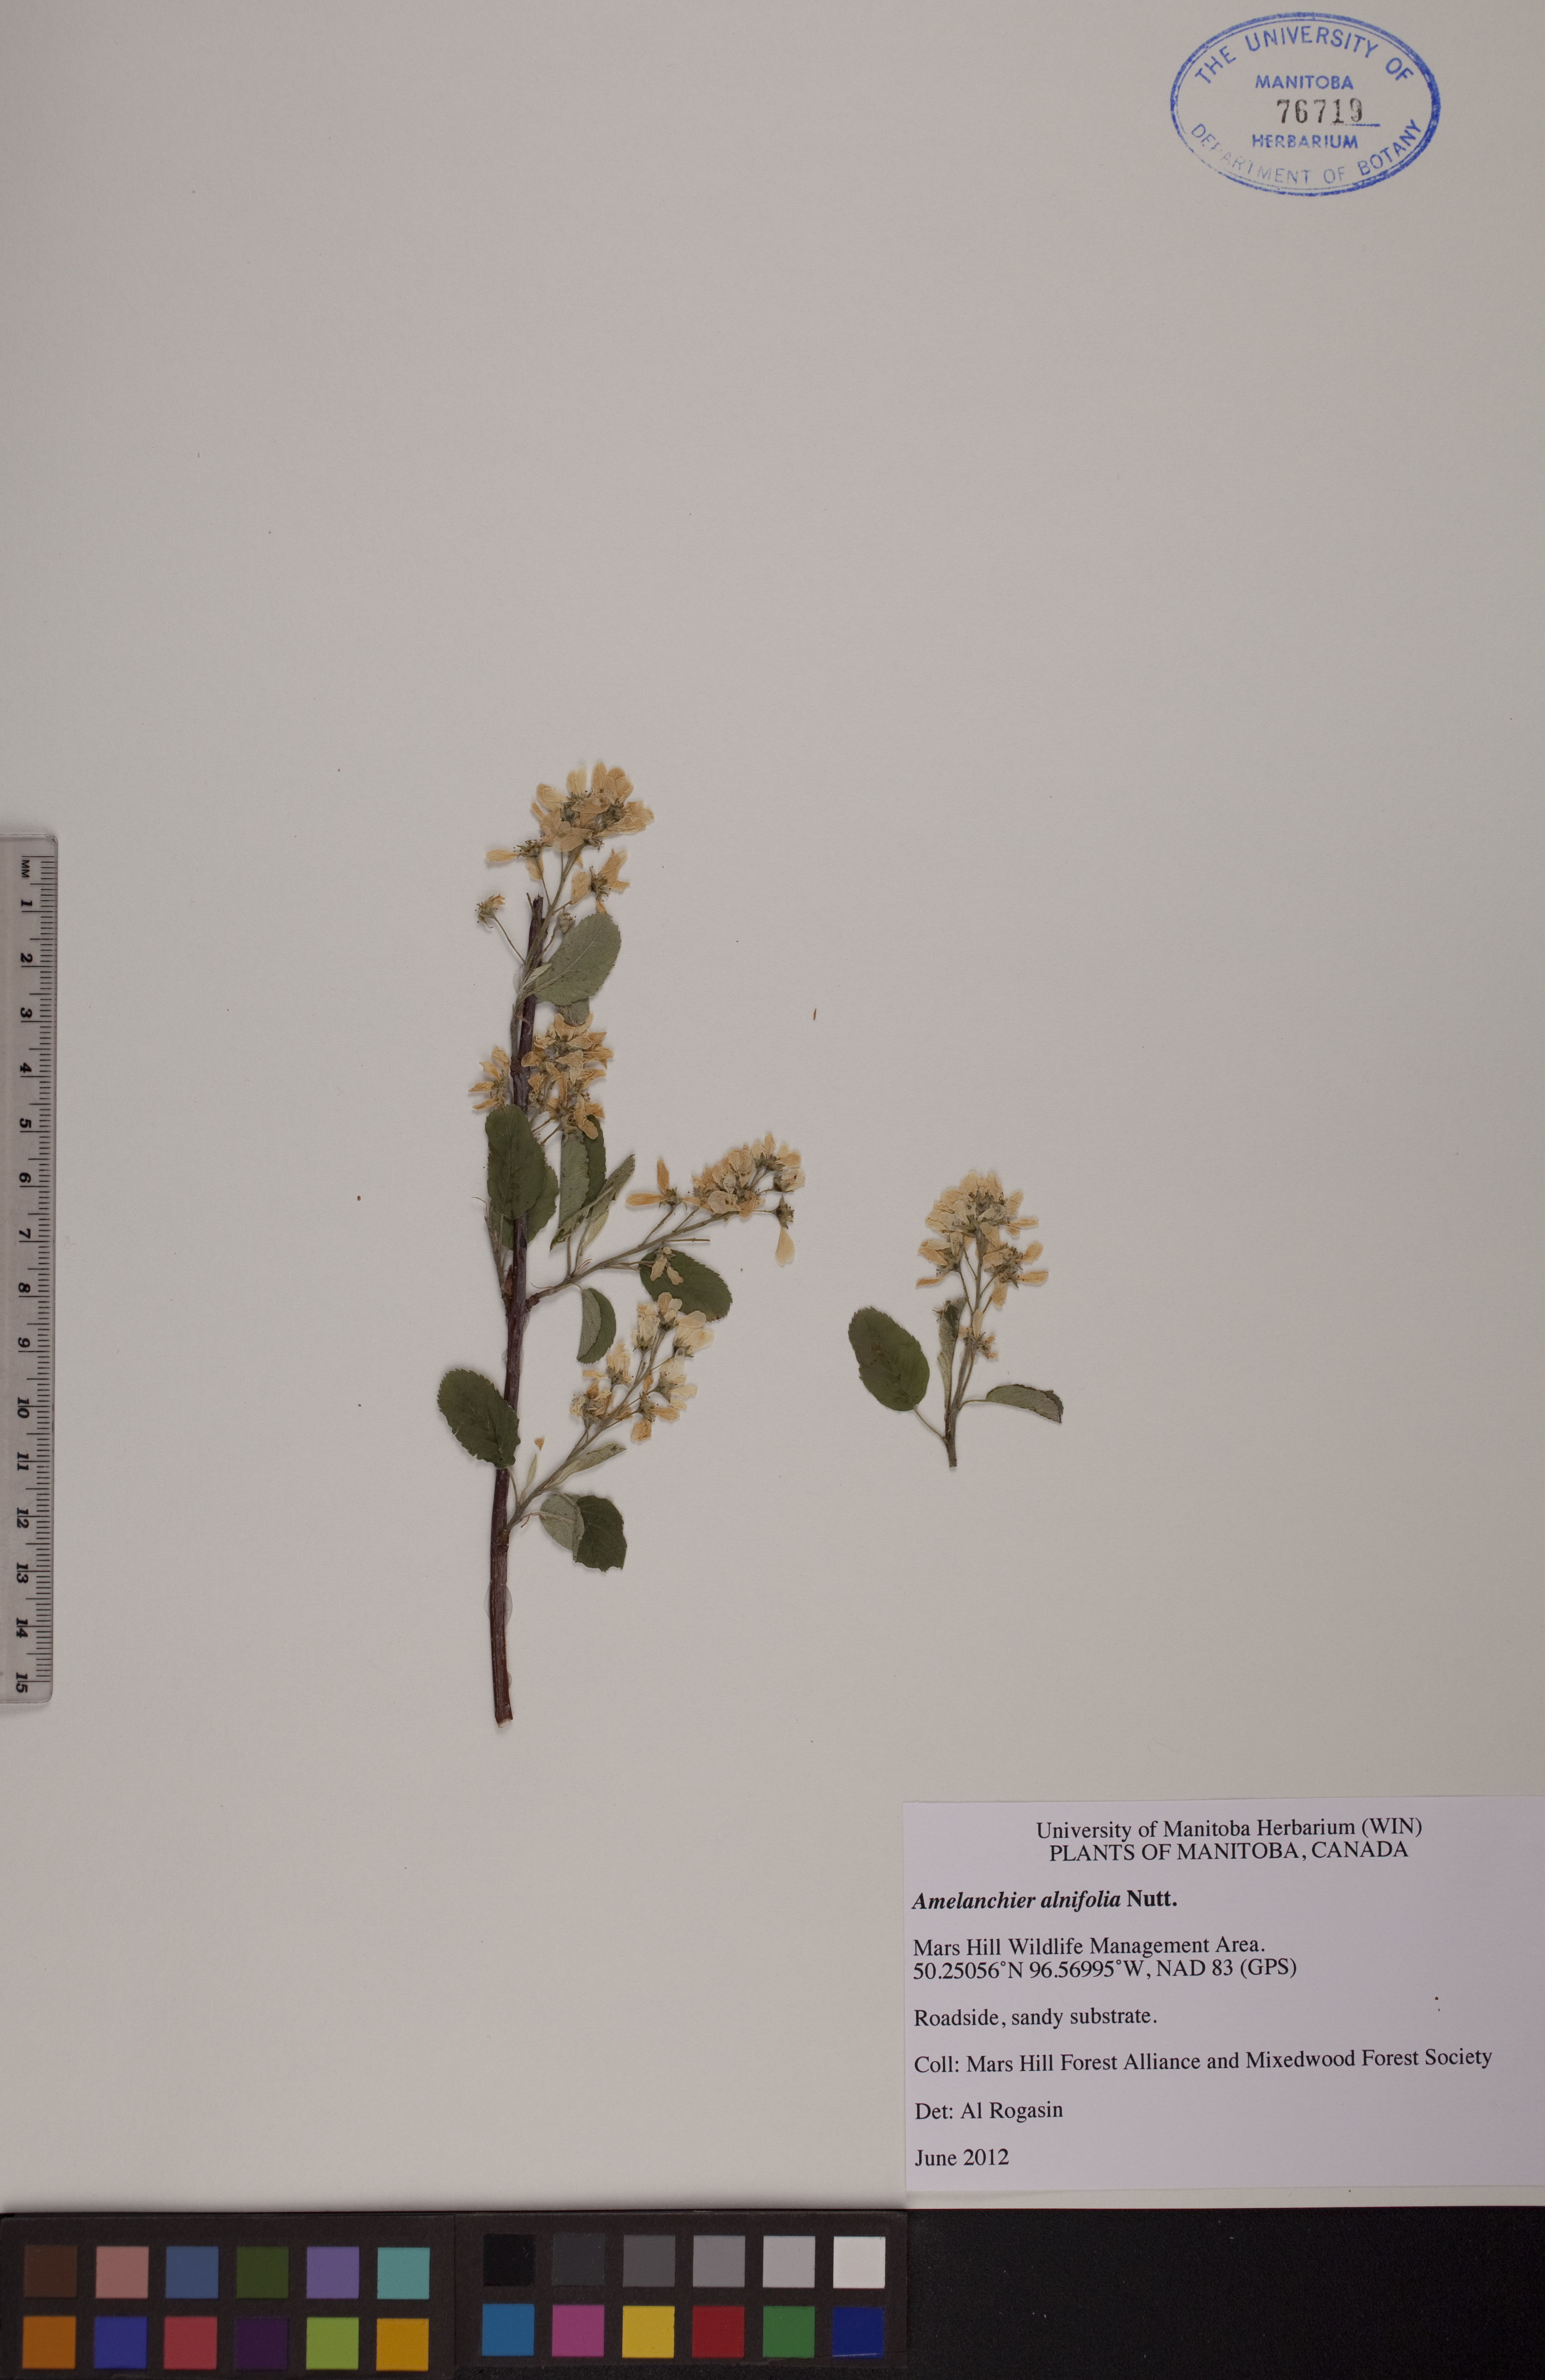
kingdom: Plantae
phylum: Tracheophyta
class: Magnoliopsida
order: Rosales
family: Rosaceae
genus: Amelanchier
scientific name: Amelanchier alnifolia
